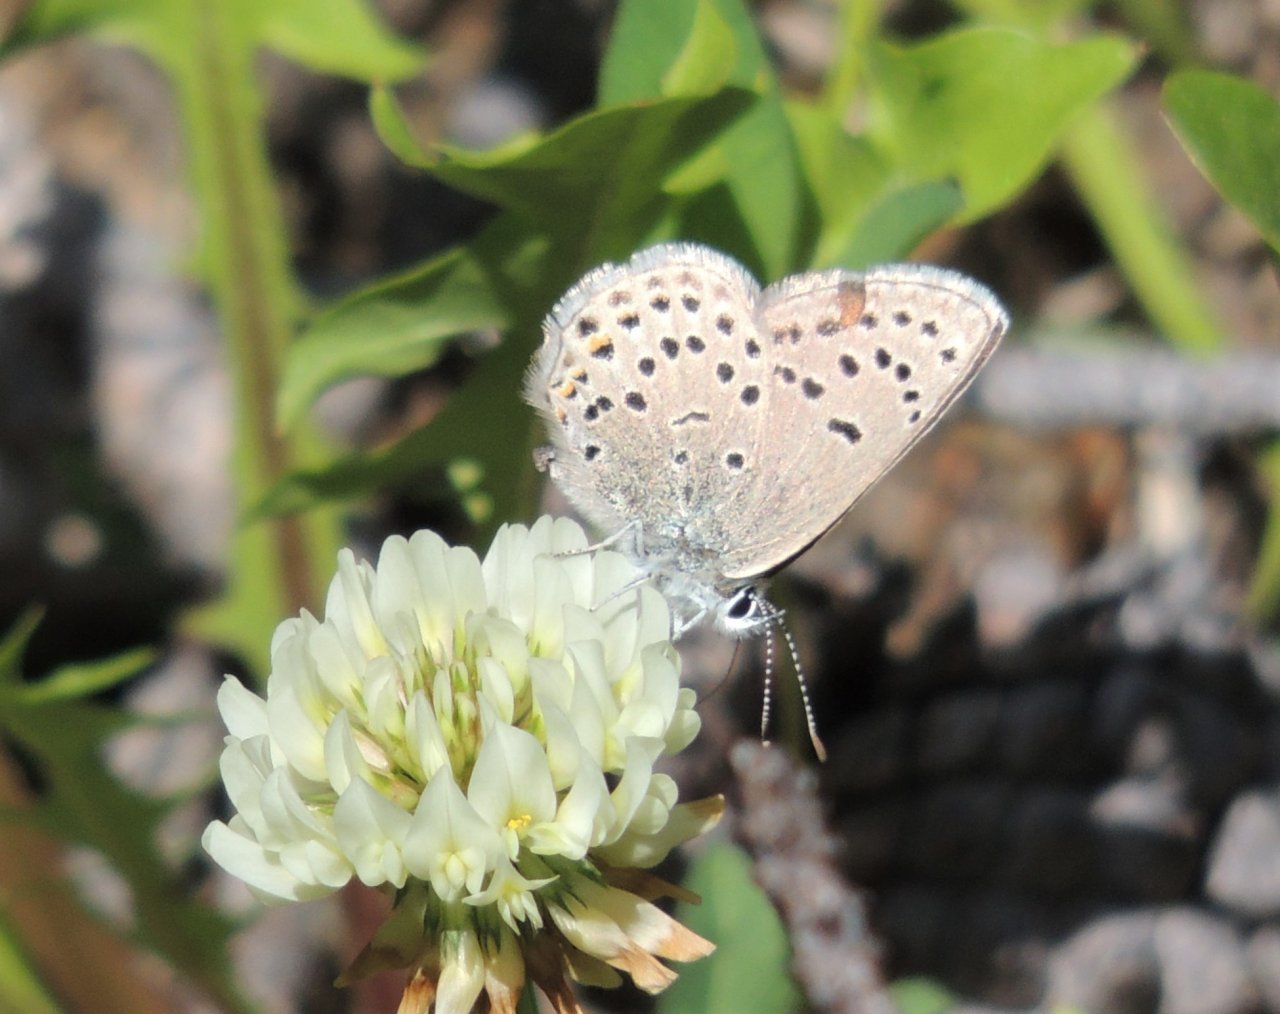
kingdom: Animalia
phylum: Arthropoda
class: Insecta
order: Lepidoptera
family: Lycaenidae
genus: Plebejus
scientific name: Plebejus saepiolus
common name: Greenish Blue
